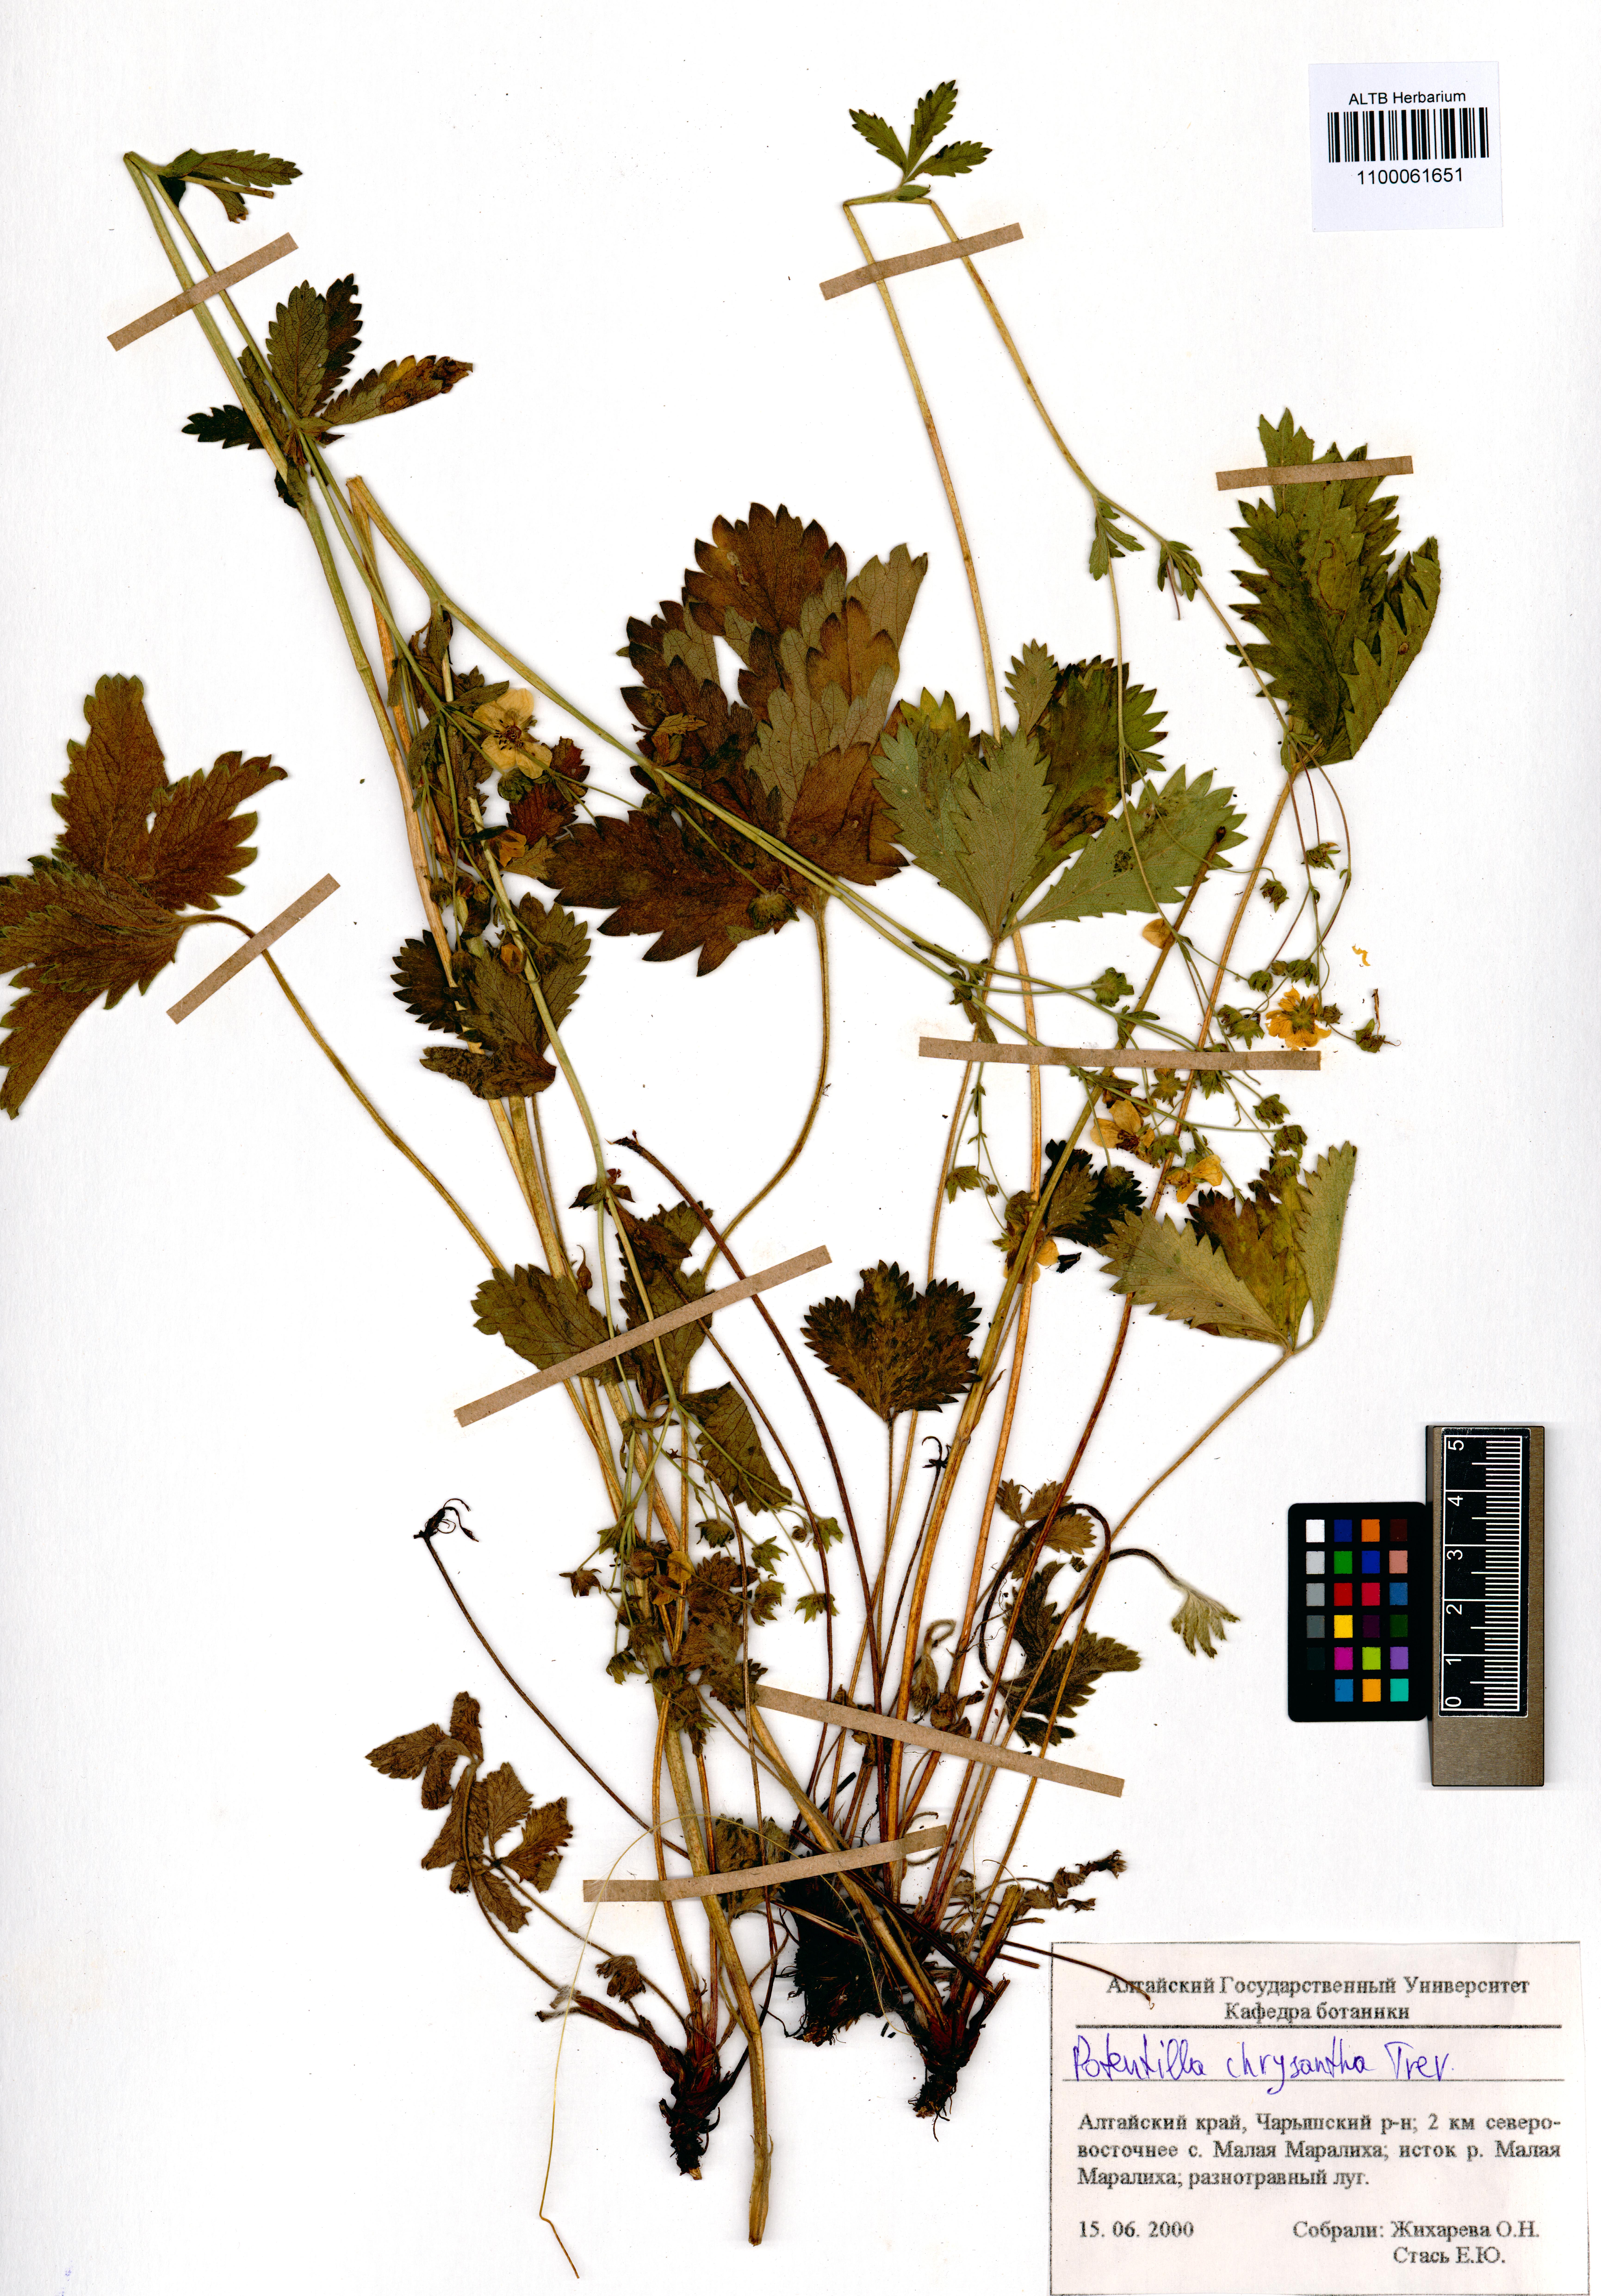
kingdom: Plantae
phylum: Tracheophyta
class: Magnoliopsida
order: Rosales
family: Rosaceae
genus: Potentilla
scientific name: Potentilla chrysantha
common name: Thuringian cinquefoil
